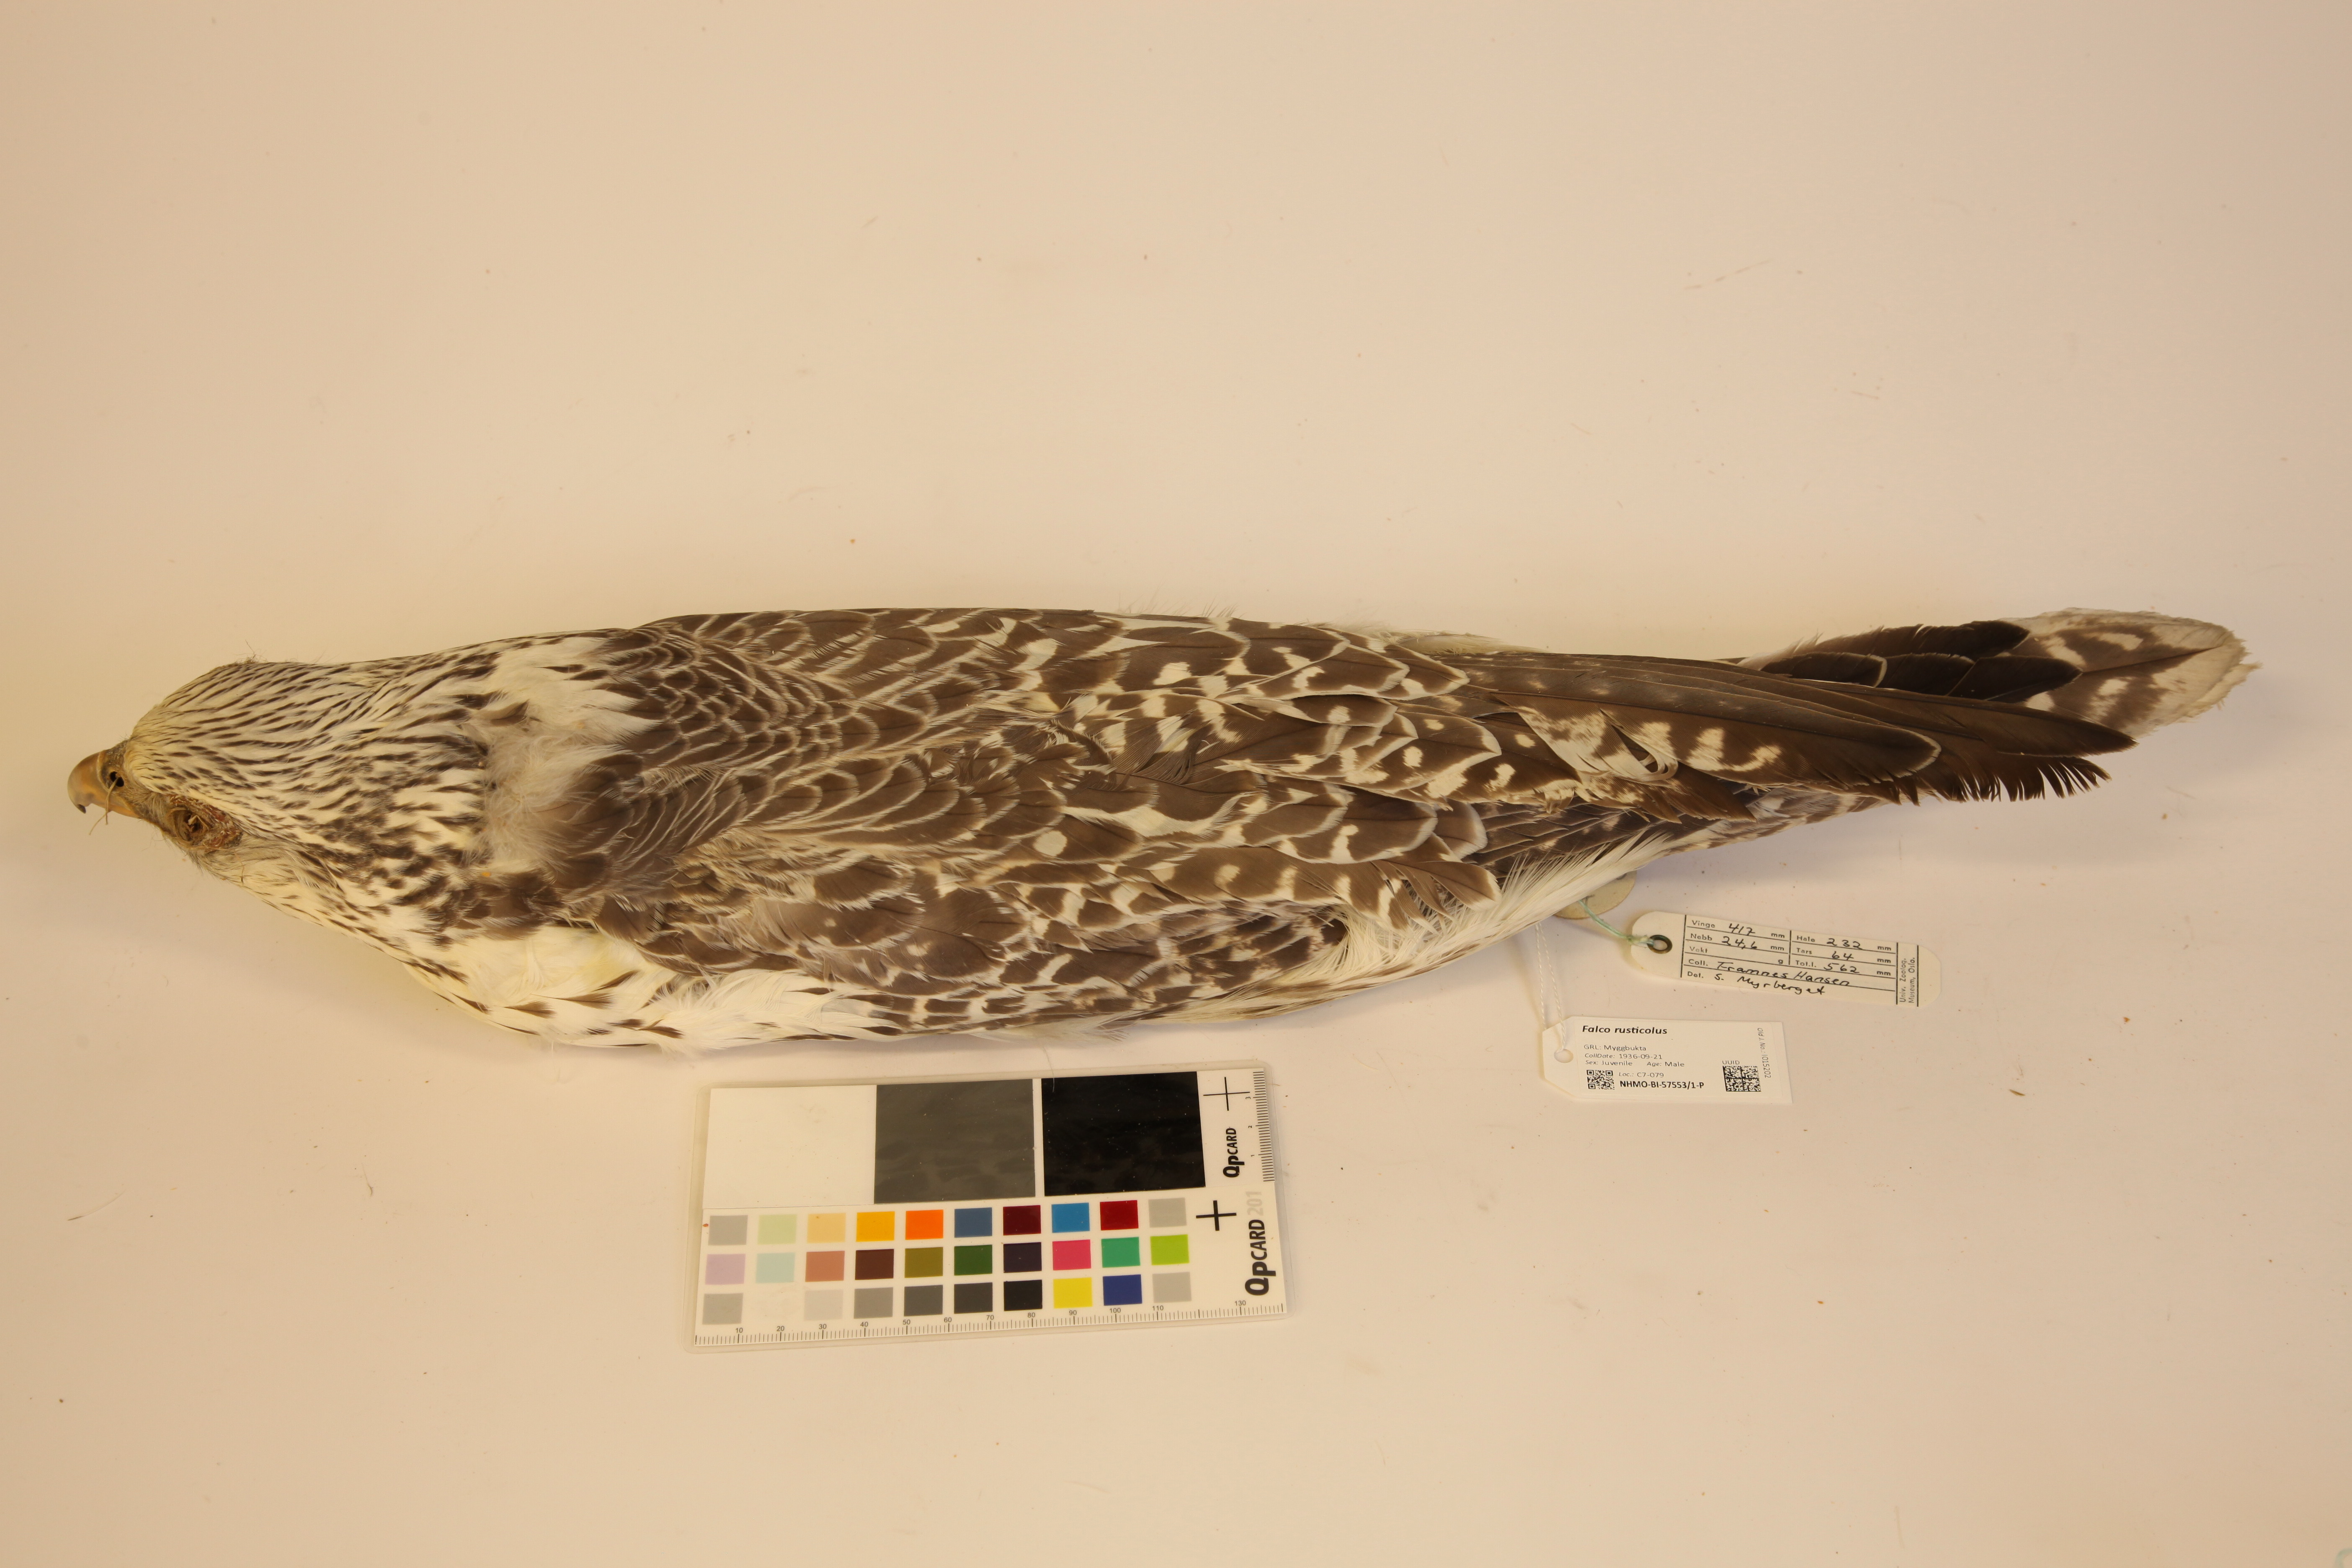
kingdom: Animalia
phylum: Chordata
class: Aves
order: Falconiformes
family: Falconidae
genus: Falco
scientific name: Falco rusticolus
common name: Gyrfalcon
